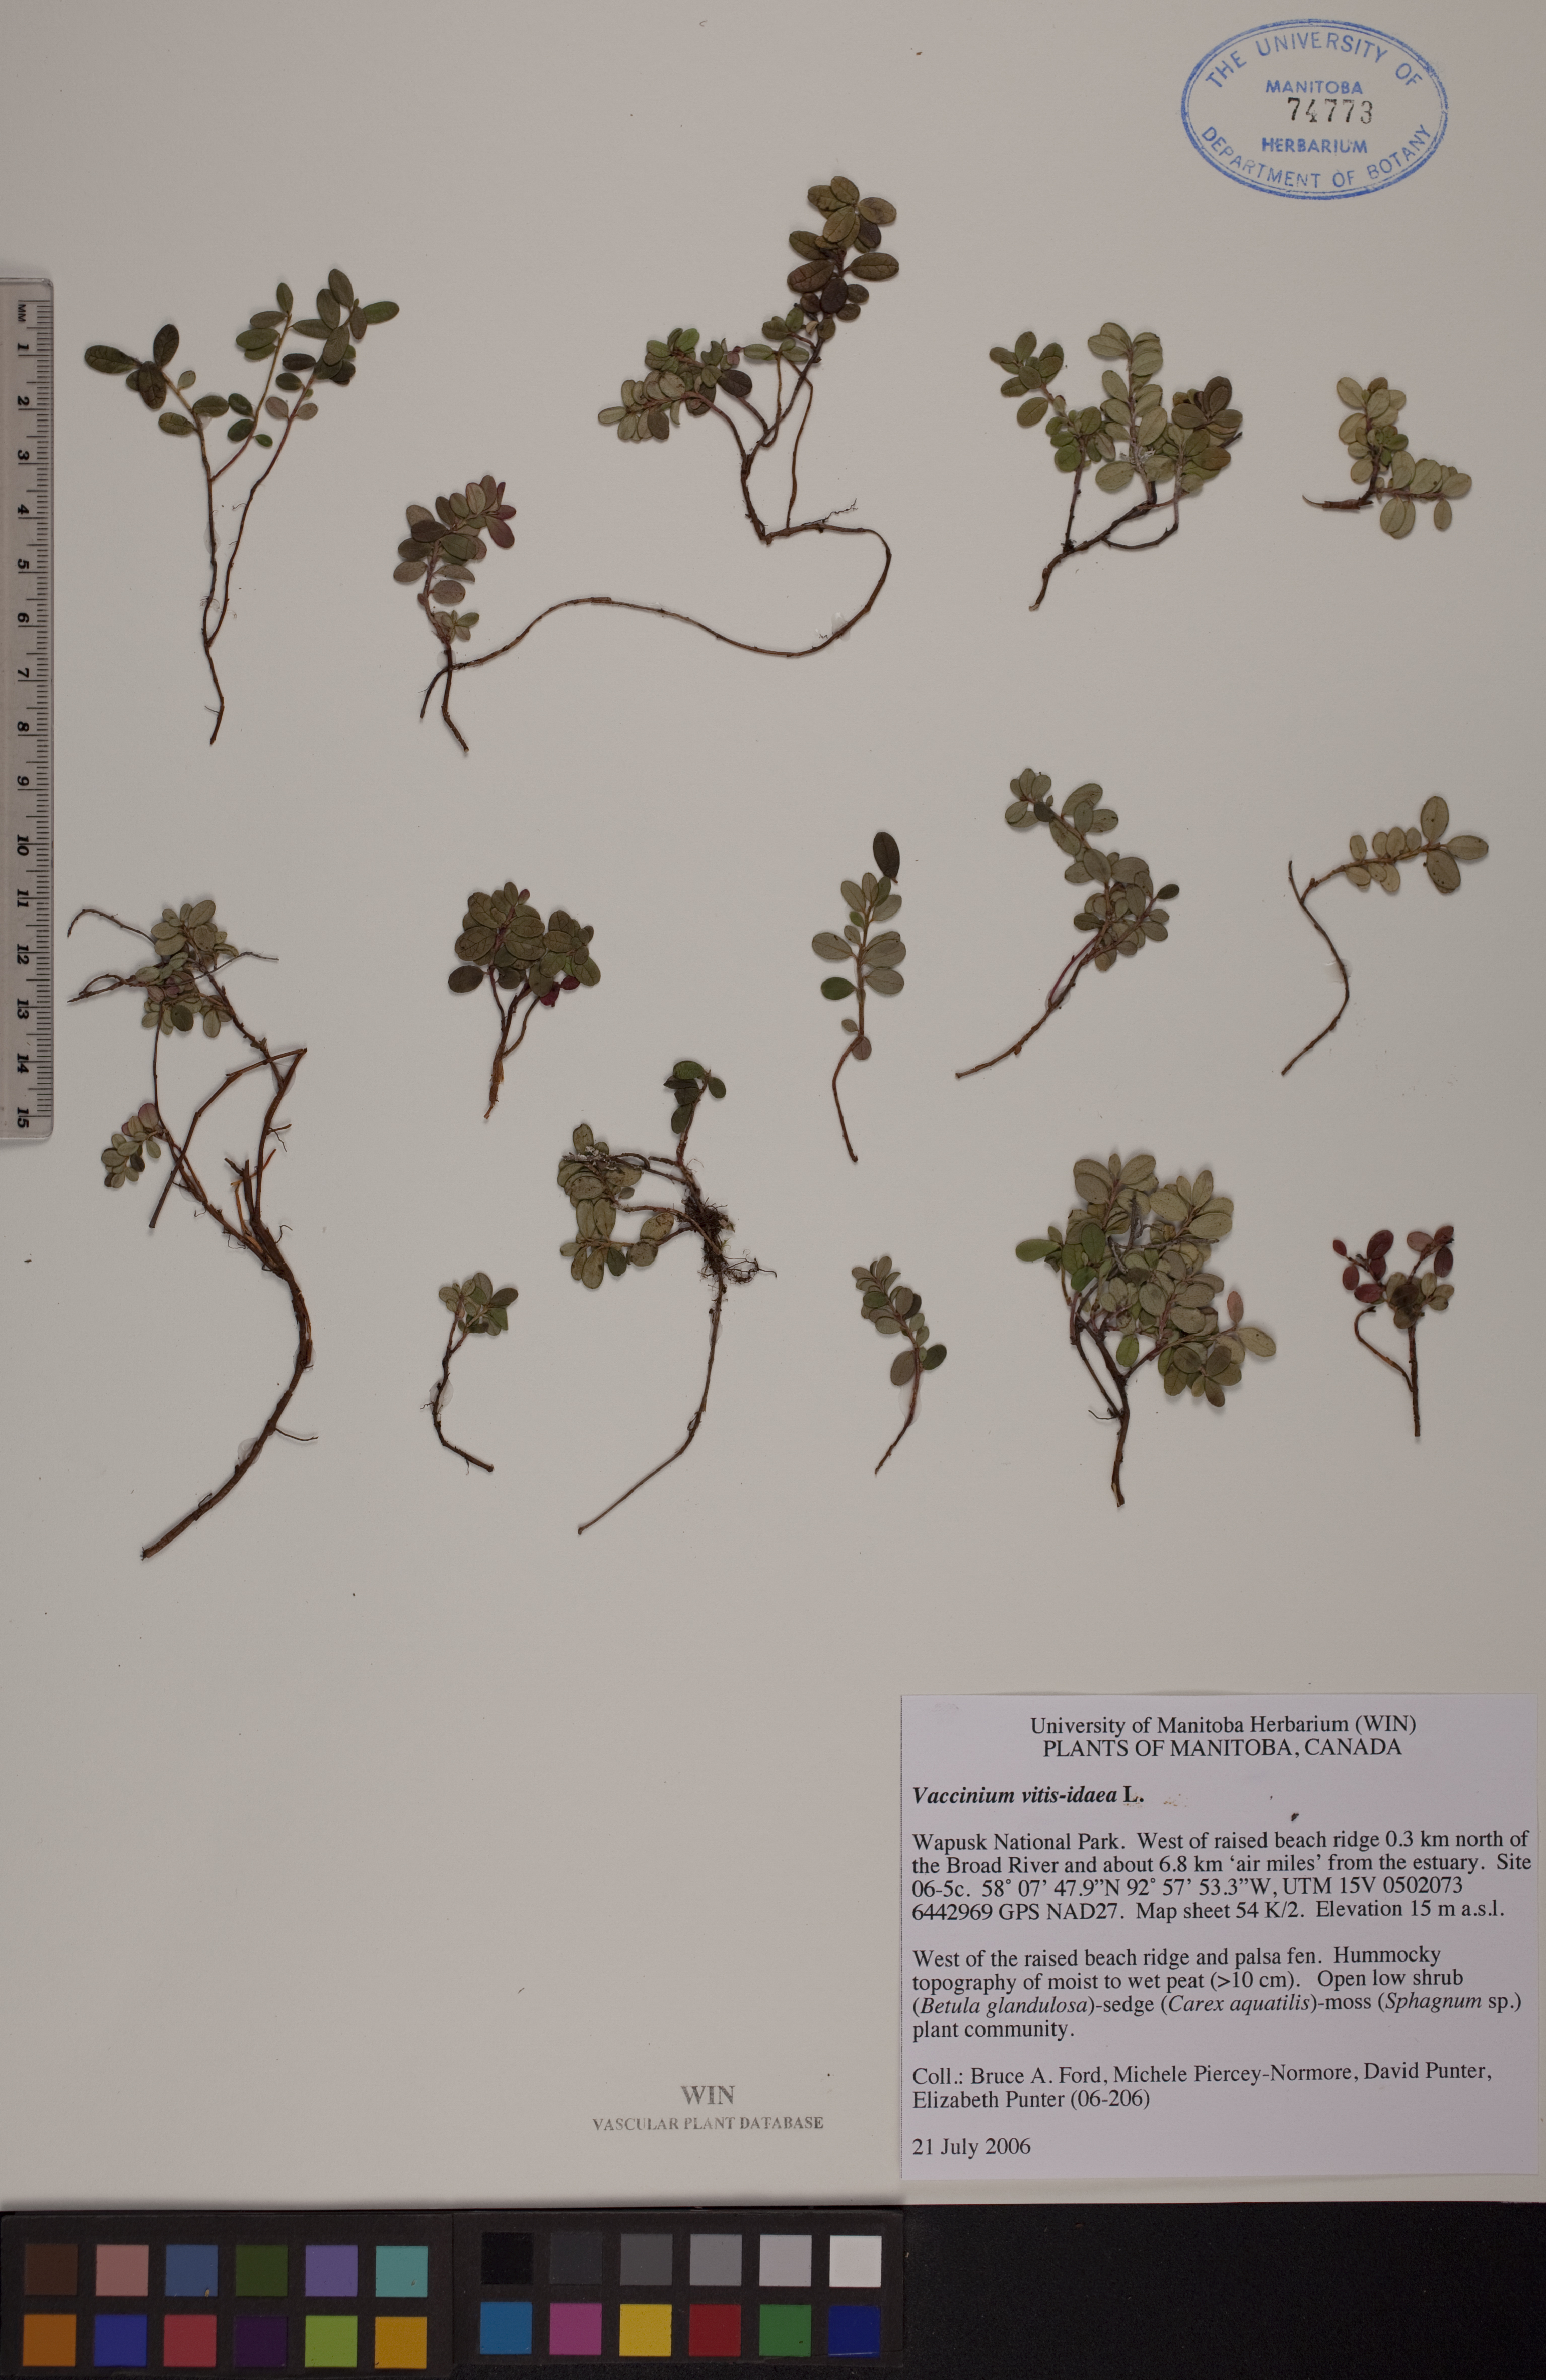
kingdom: Plantae
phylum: Tracheophyta
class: Magnoliopsida
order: Ericales
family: Ericaceae
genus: Vaccinium
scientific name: Vaccinium vitis-idaea
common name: Cowberry
